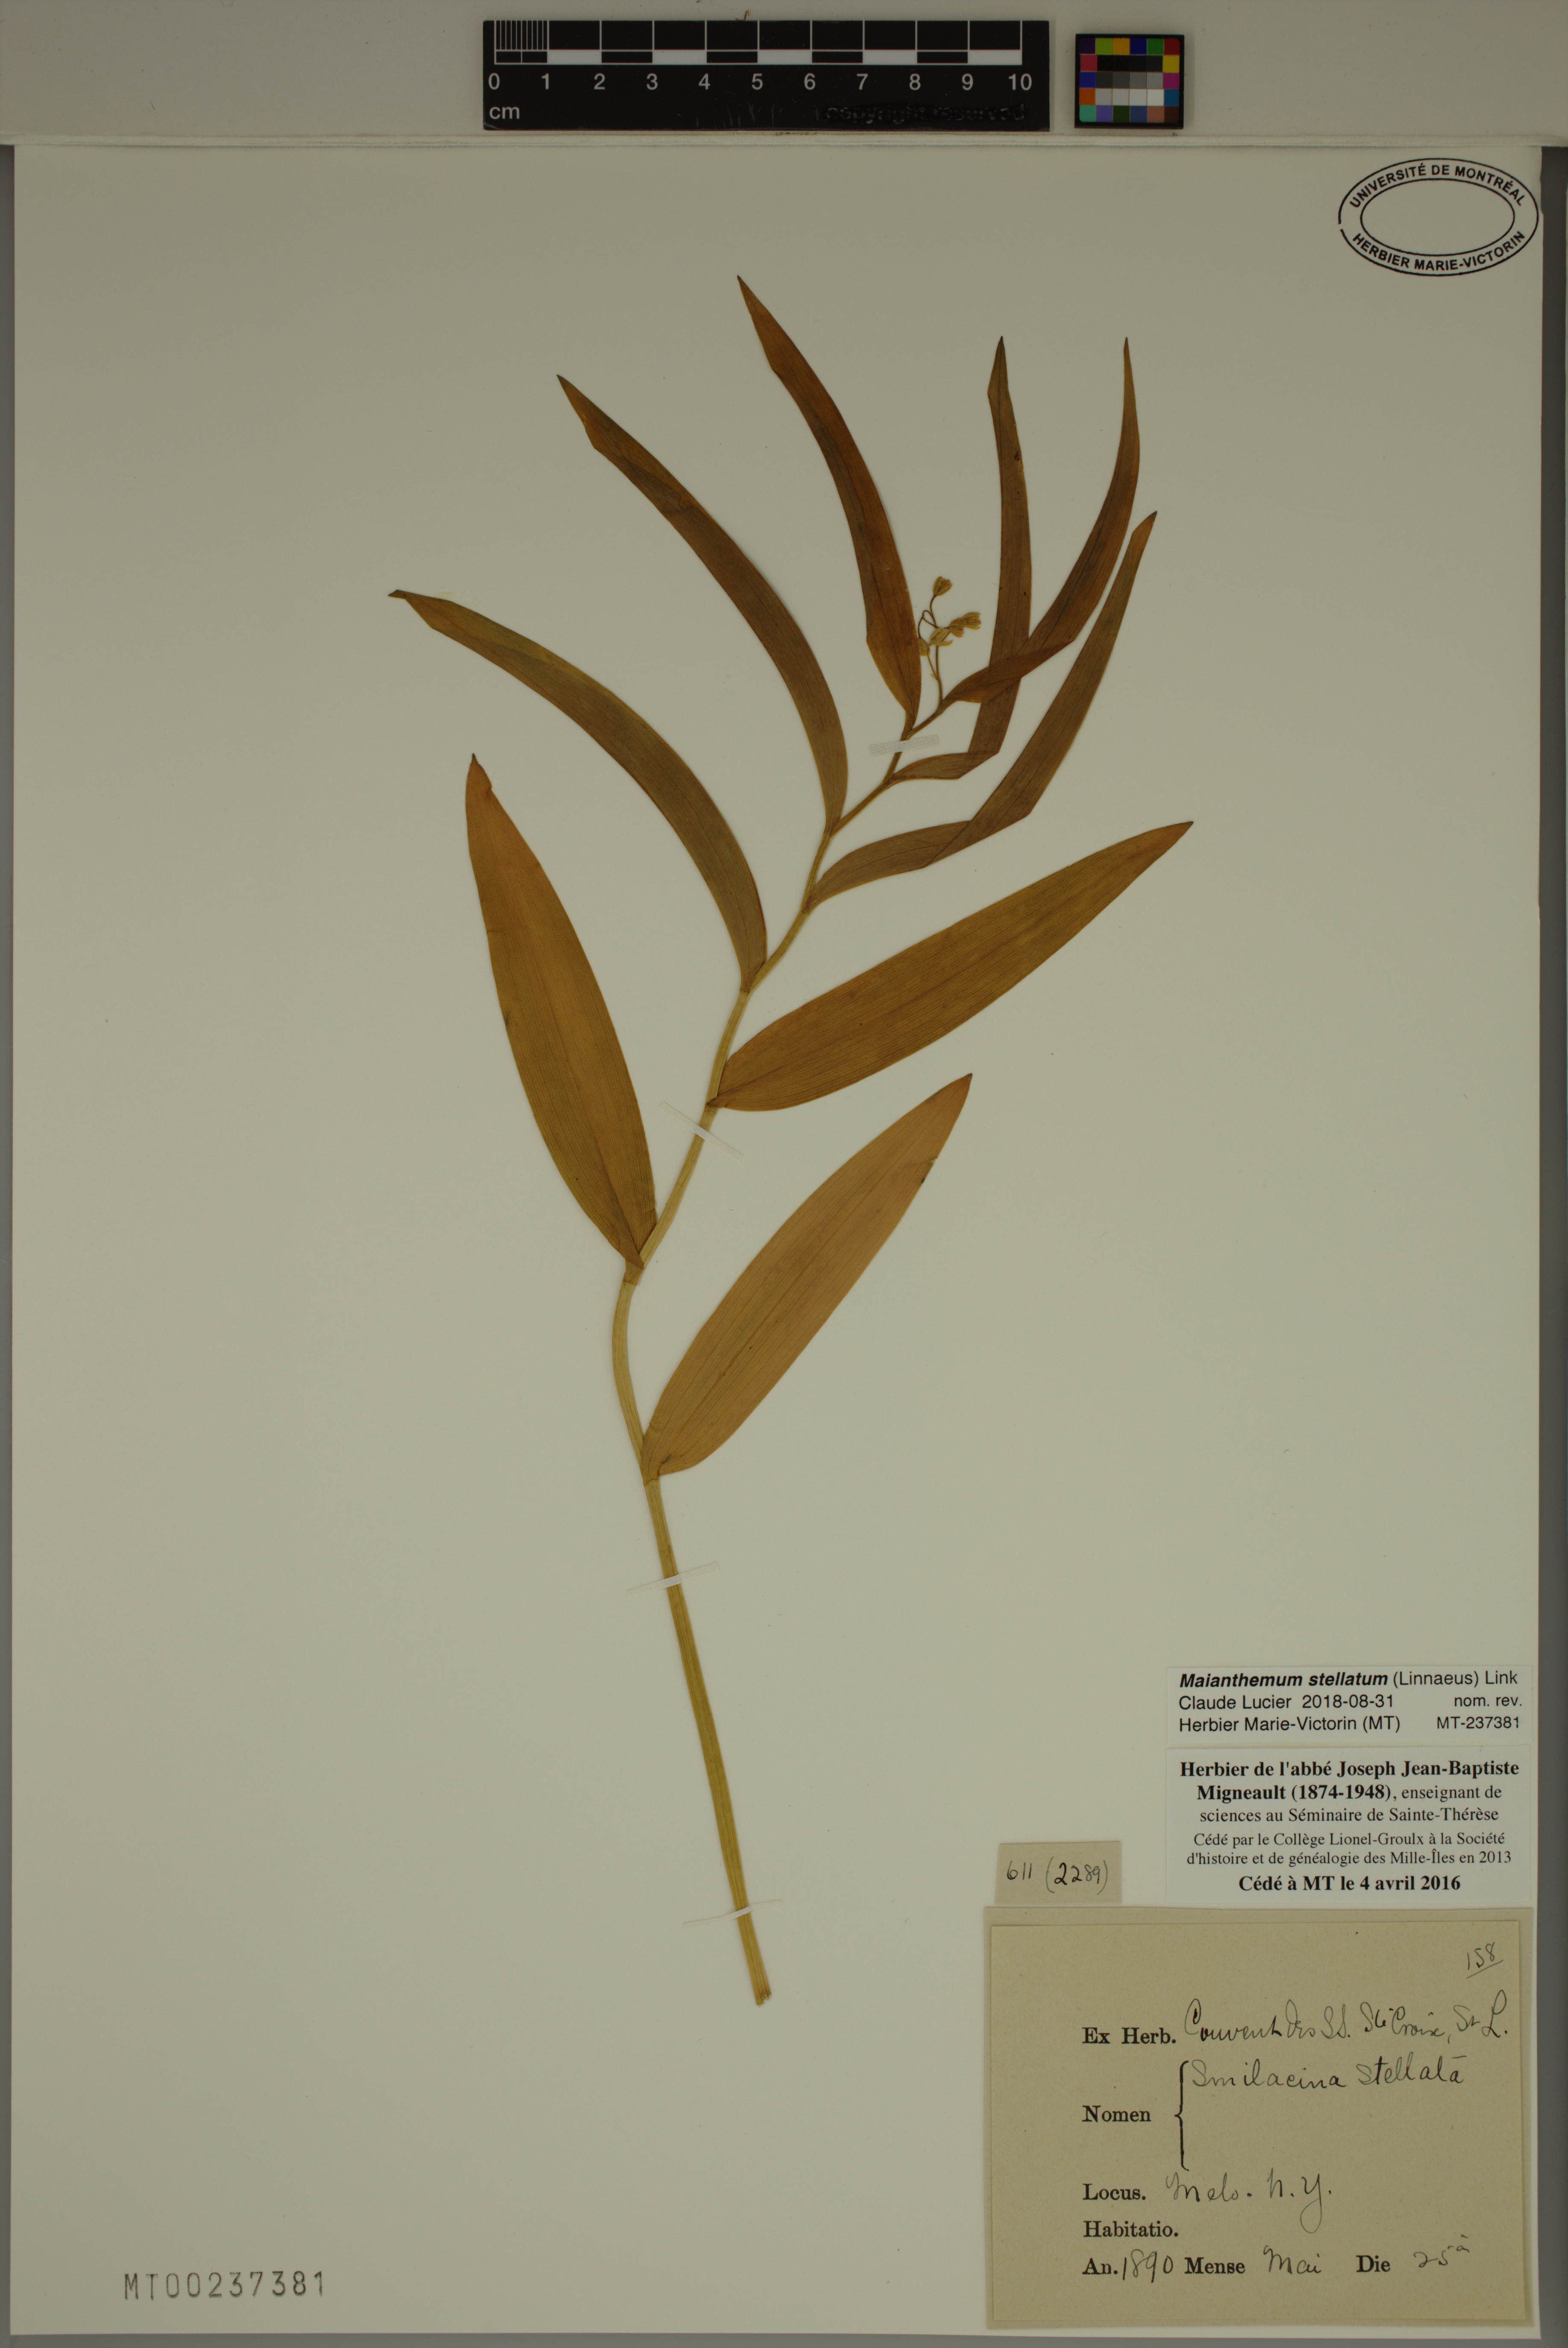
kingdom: Plantae
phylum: Tracheophyta
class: Liliopsida
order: Asparagales
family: Asparagaceae
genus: Maianthemum
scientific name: Maianthemum stellatum
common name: Little false solomon's seal
